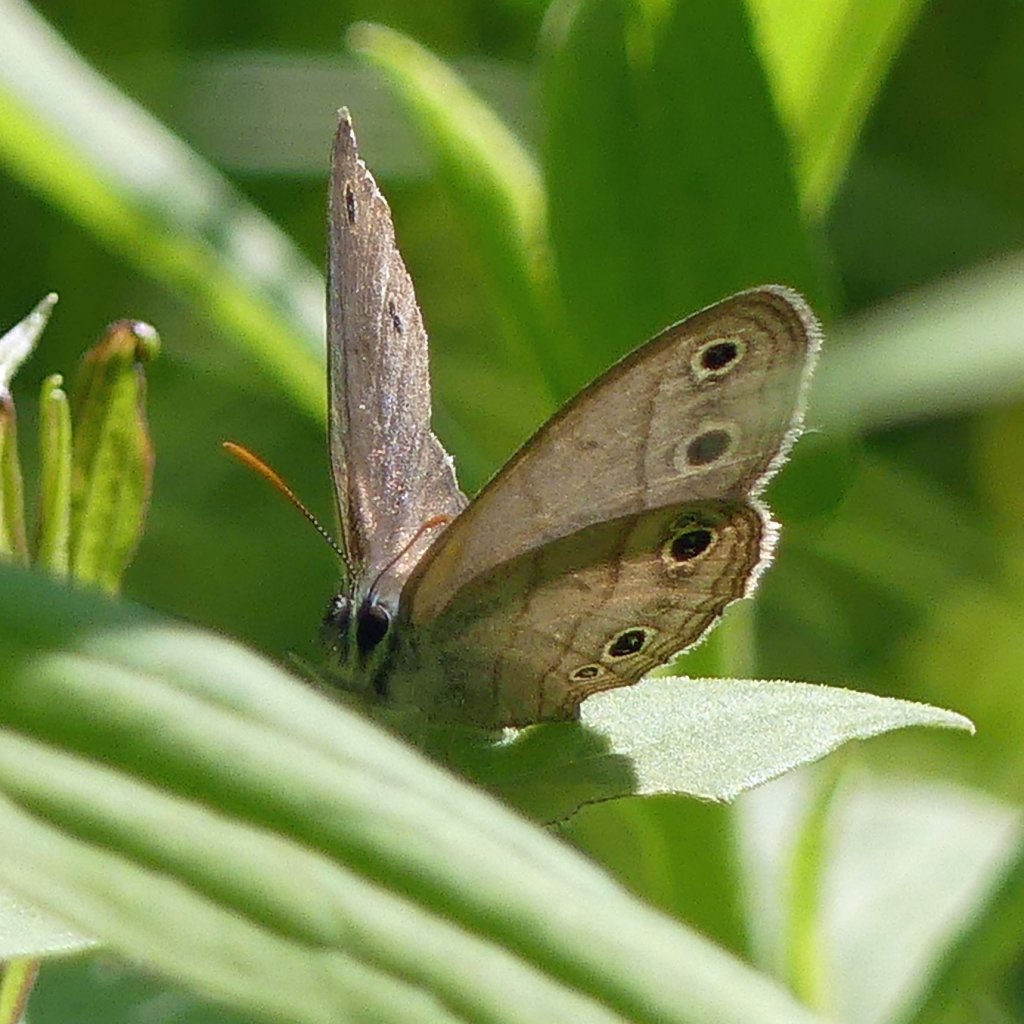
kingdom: Animalia
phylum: Arthropoda
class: Insecta
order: Lepidoptera
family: Nymphalidae
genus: Euptychia
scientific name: Euptychia cymela
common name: Little Wood Satyr
